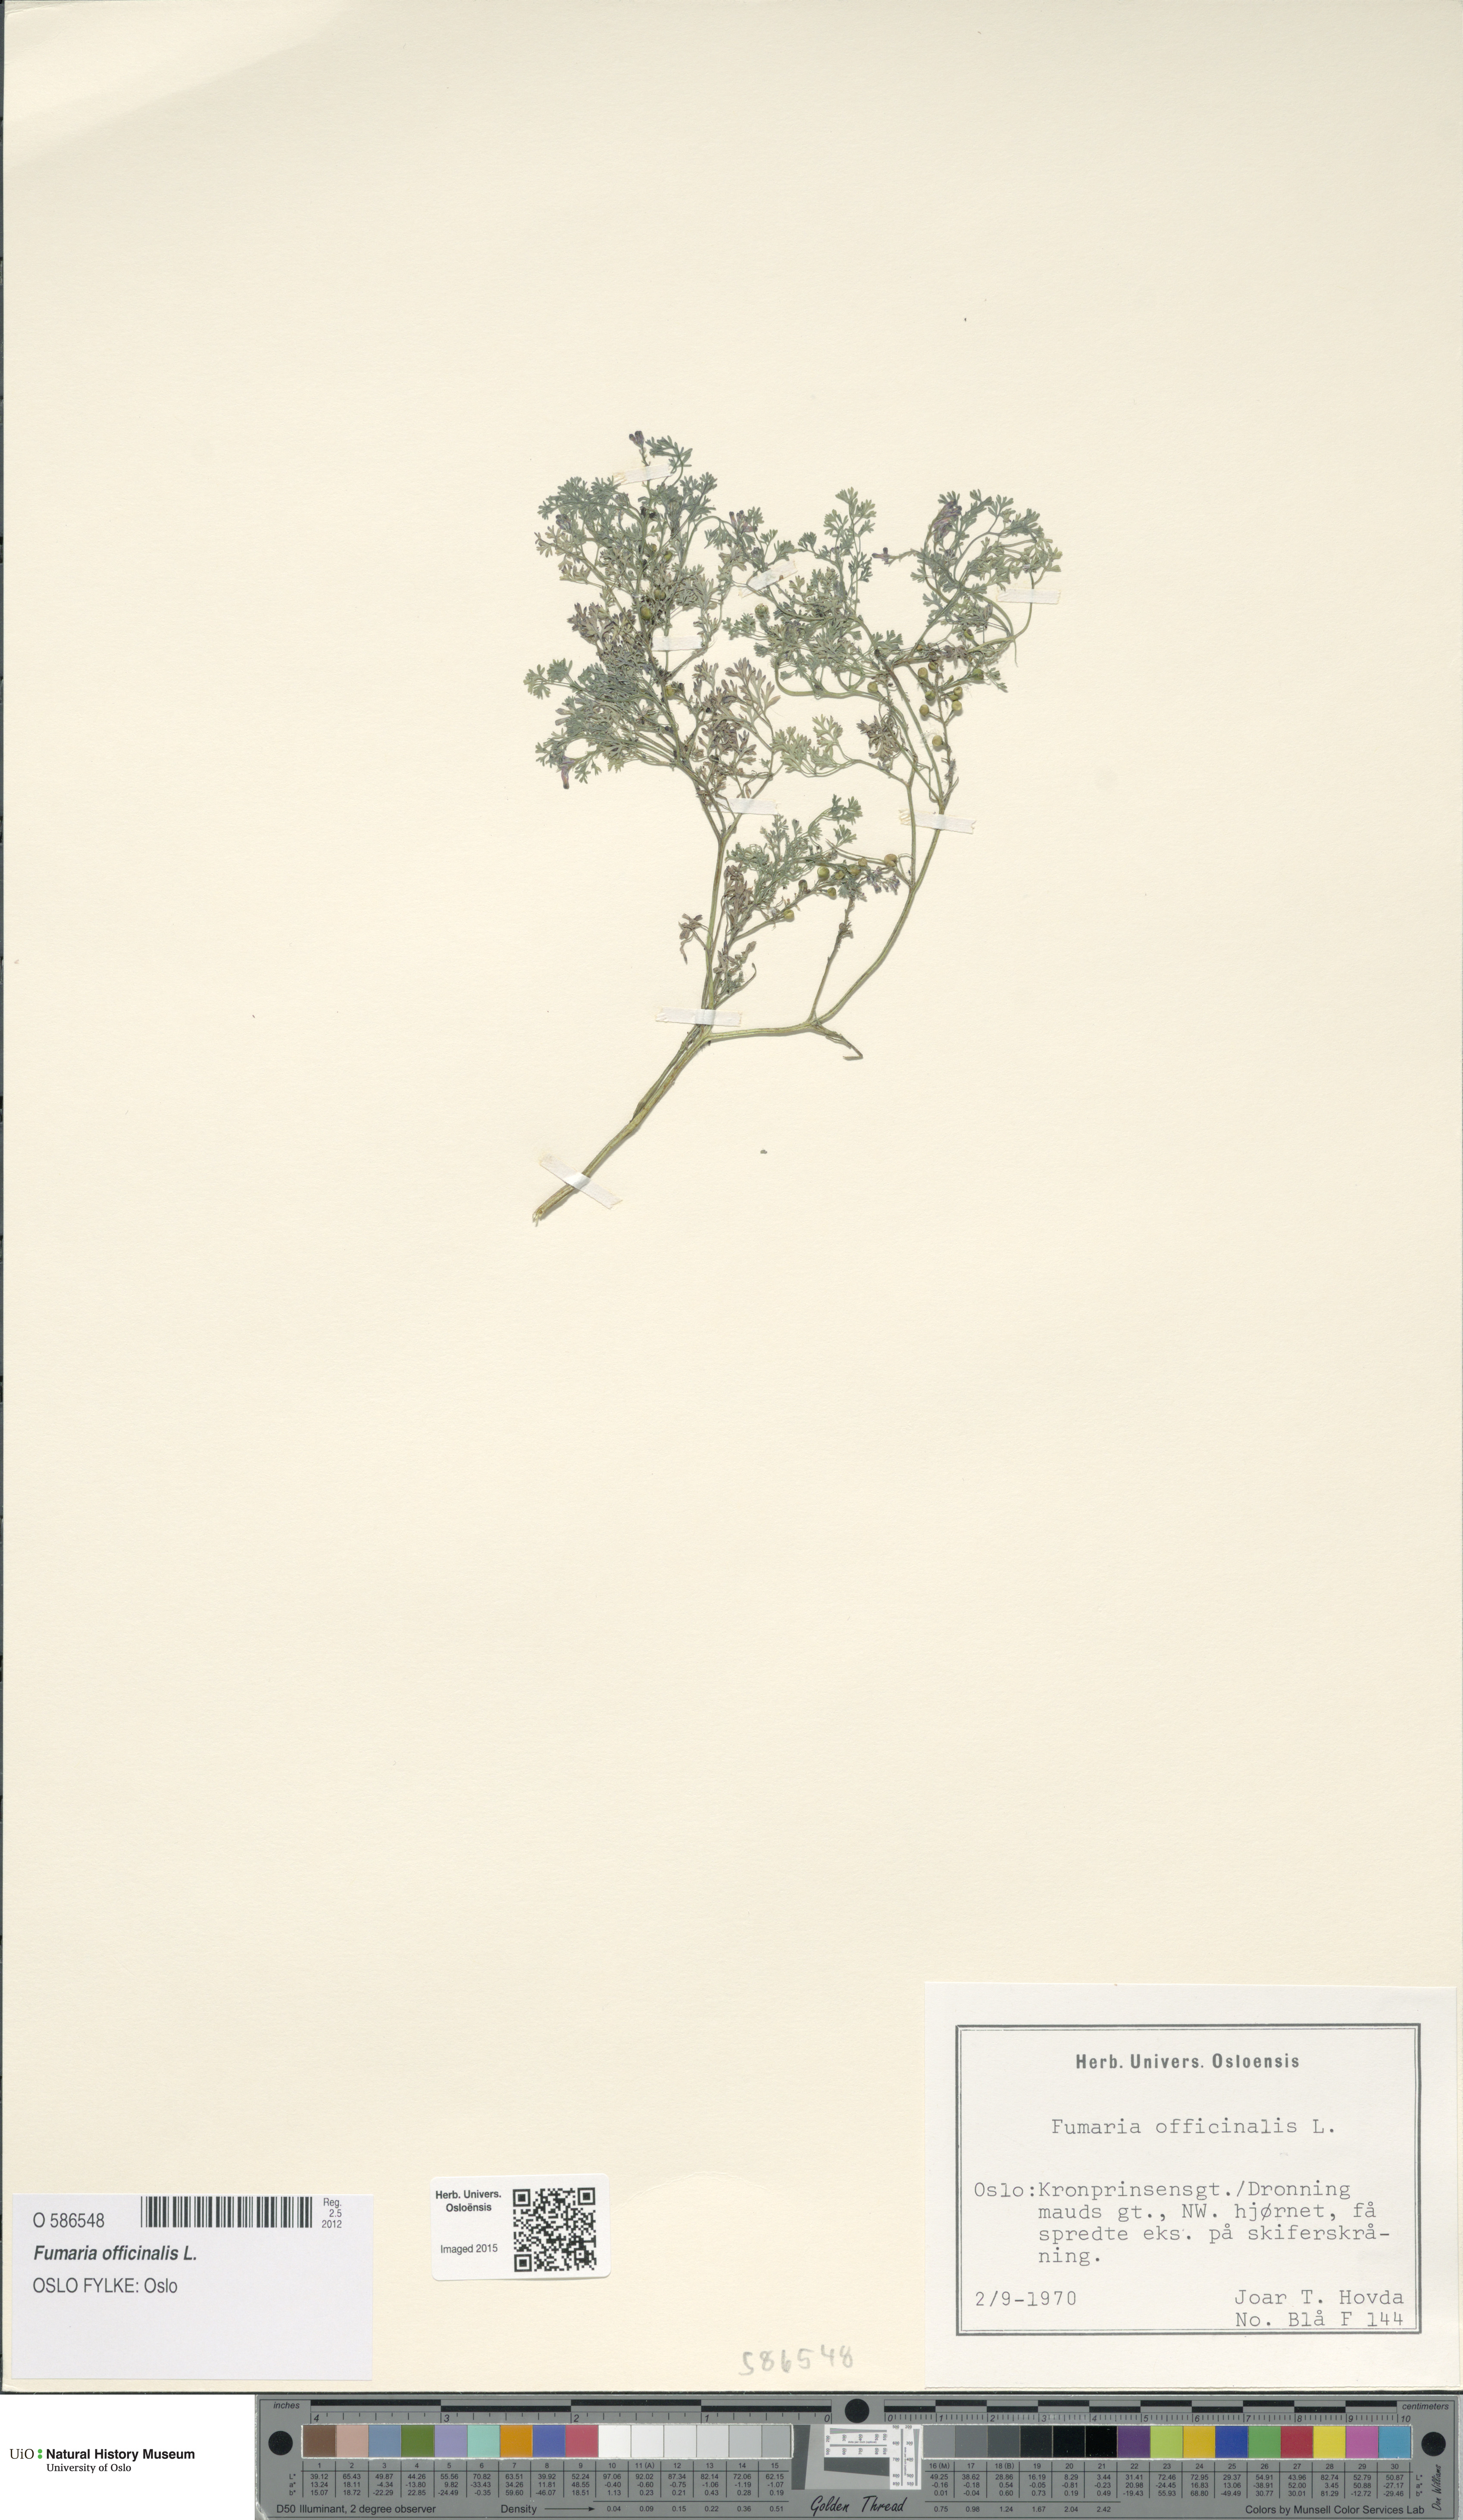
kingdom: Plantae
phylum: Tracheophyta
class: Magnoliopsida
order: Ranunculales
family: Papaveraceae
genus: Fumaria
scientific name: Fumaria officinalis
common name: Common fumitory
